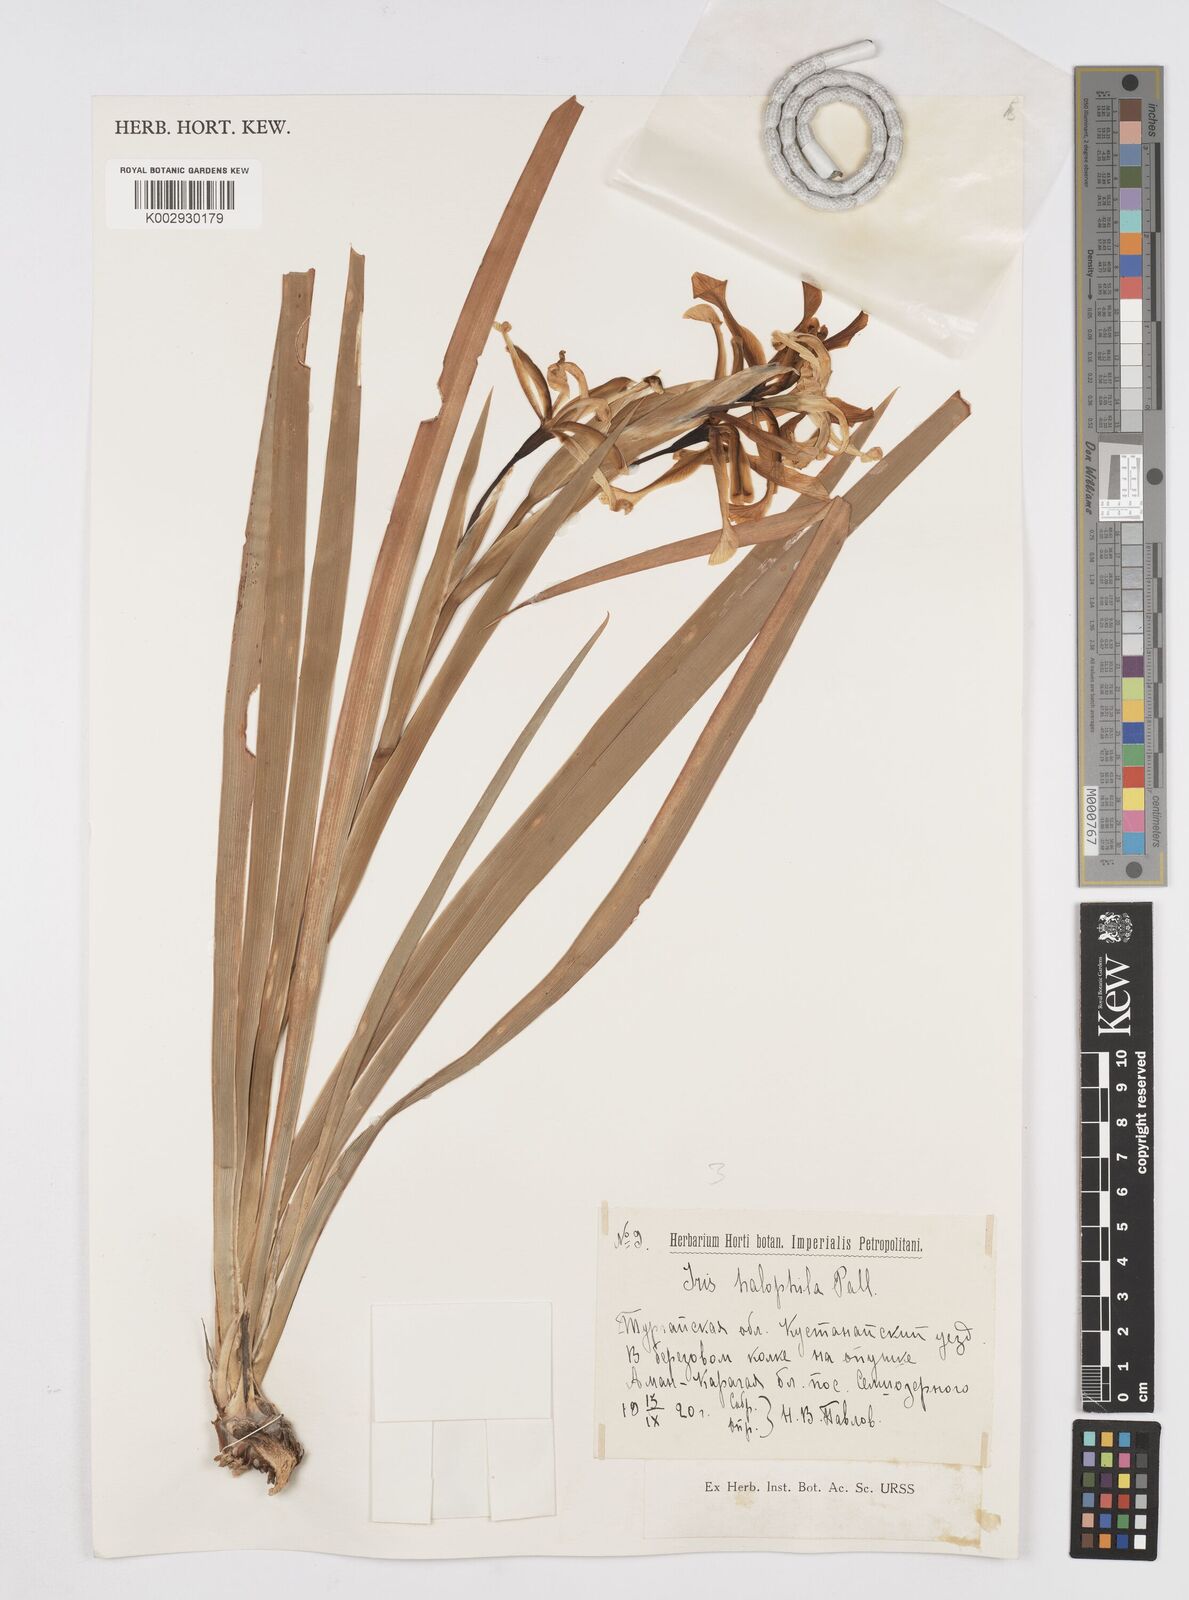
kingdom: Plantae
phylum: Tracheophyta
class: Liliopsida
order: Asparagales
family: Iridaceae
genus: Iris
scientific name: Iris halophila
